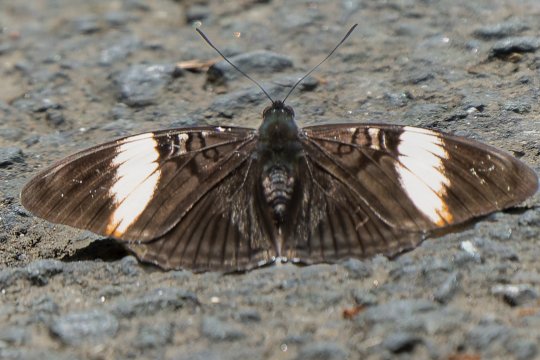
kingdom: Animalia
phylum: Arthropoda
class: Insecta
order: Lepidoptera
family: Nymphalidae
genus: Limenitis
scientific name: Limenitis isis
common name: pink-banded sister
